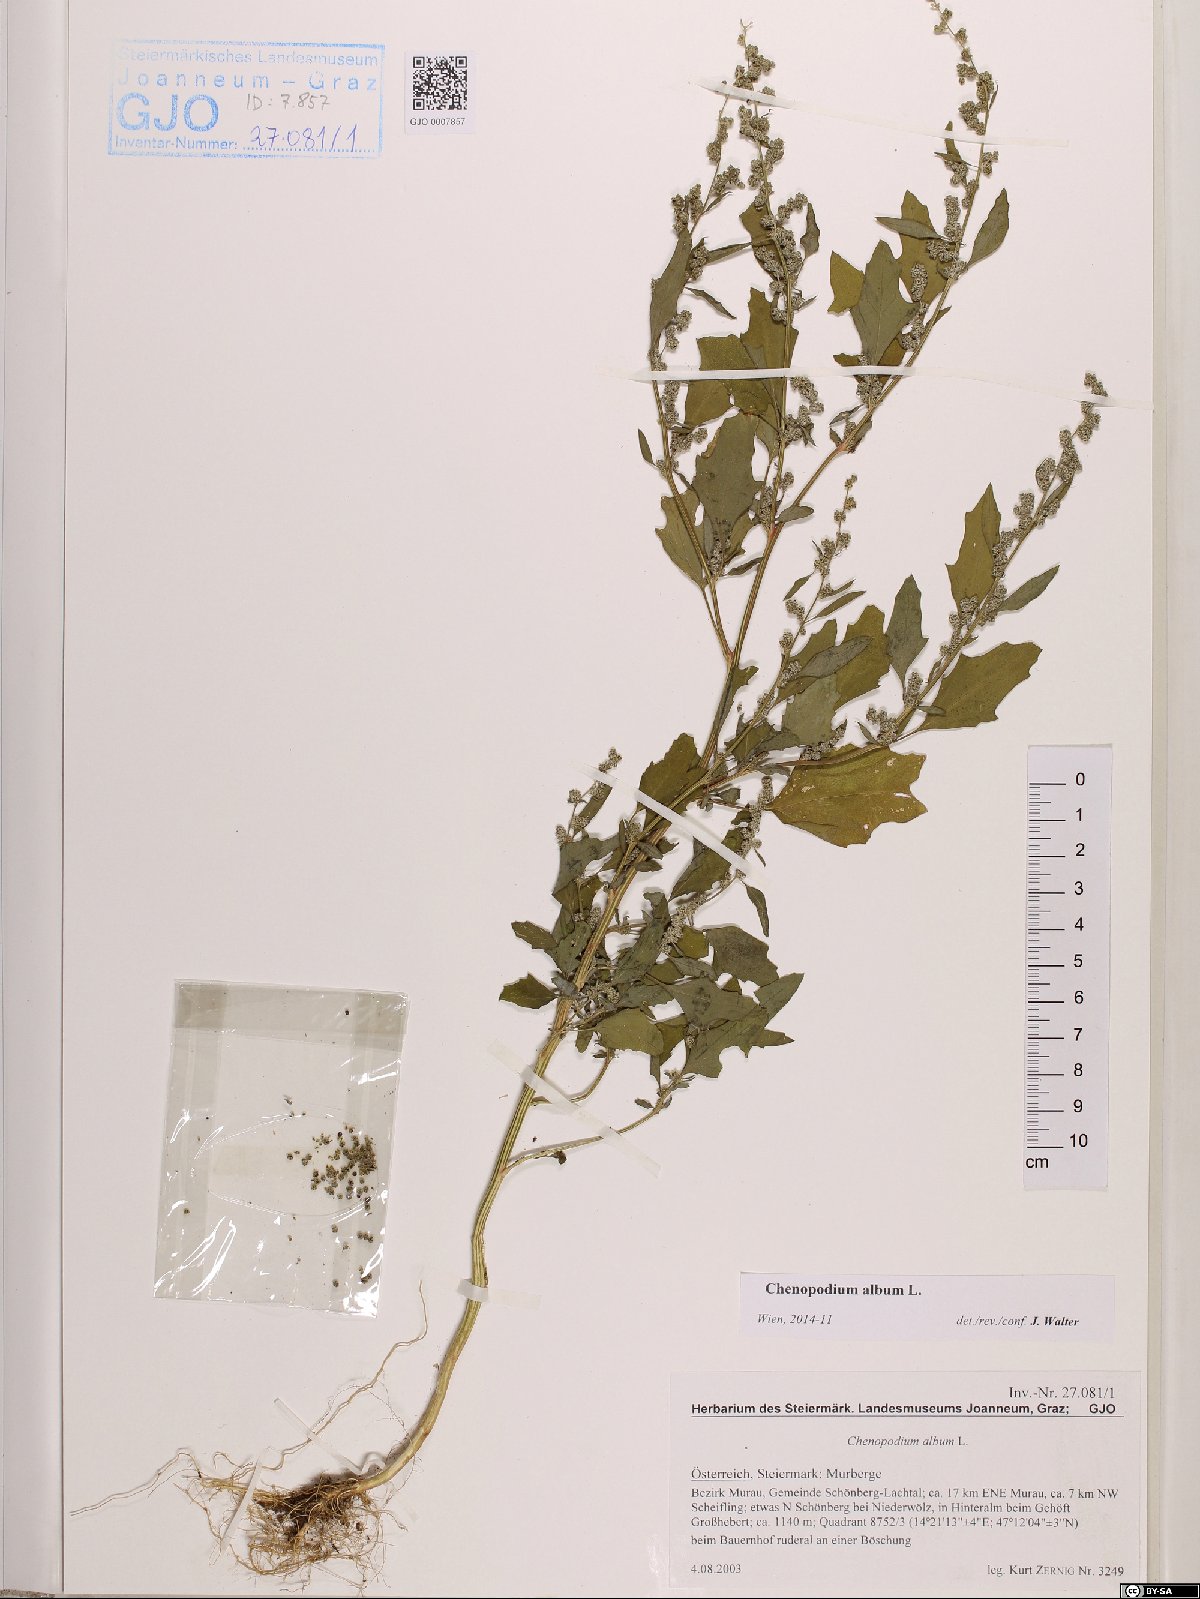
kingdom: Plantae
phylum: Tracheophyta
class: Magnoliopsida
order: Caryophyllales
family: Amaranthaceae
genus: Chenopodium
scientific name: Chenopodium album
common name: Fat-hen
